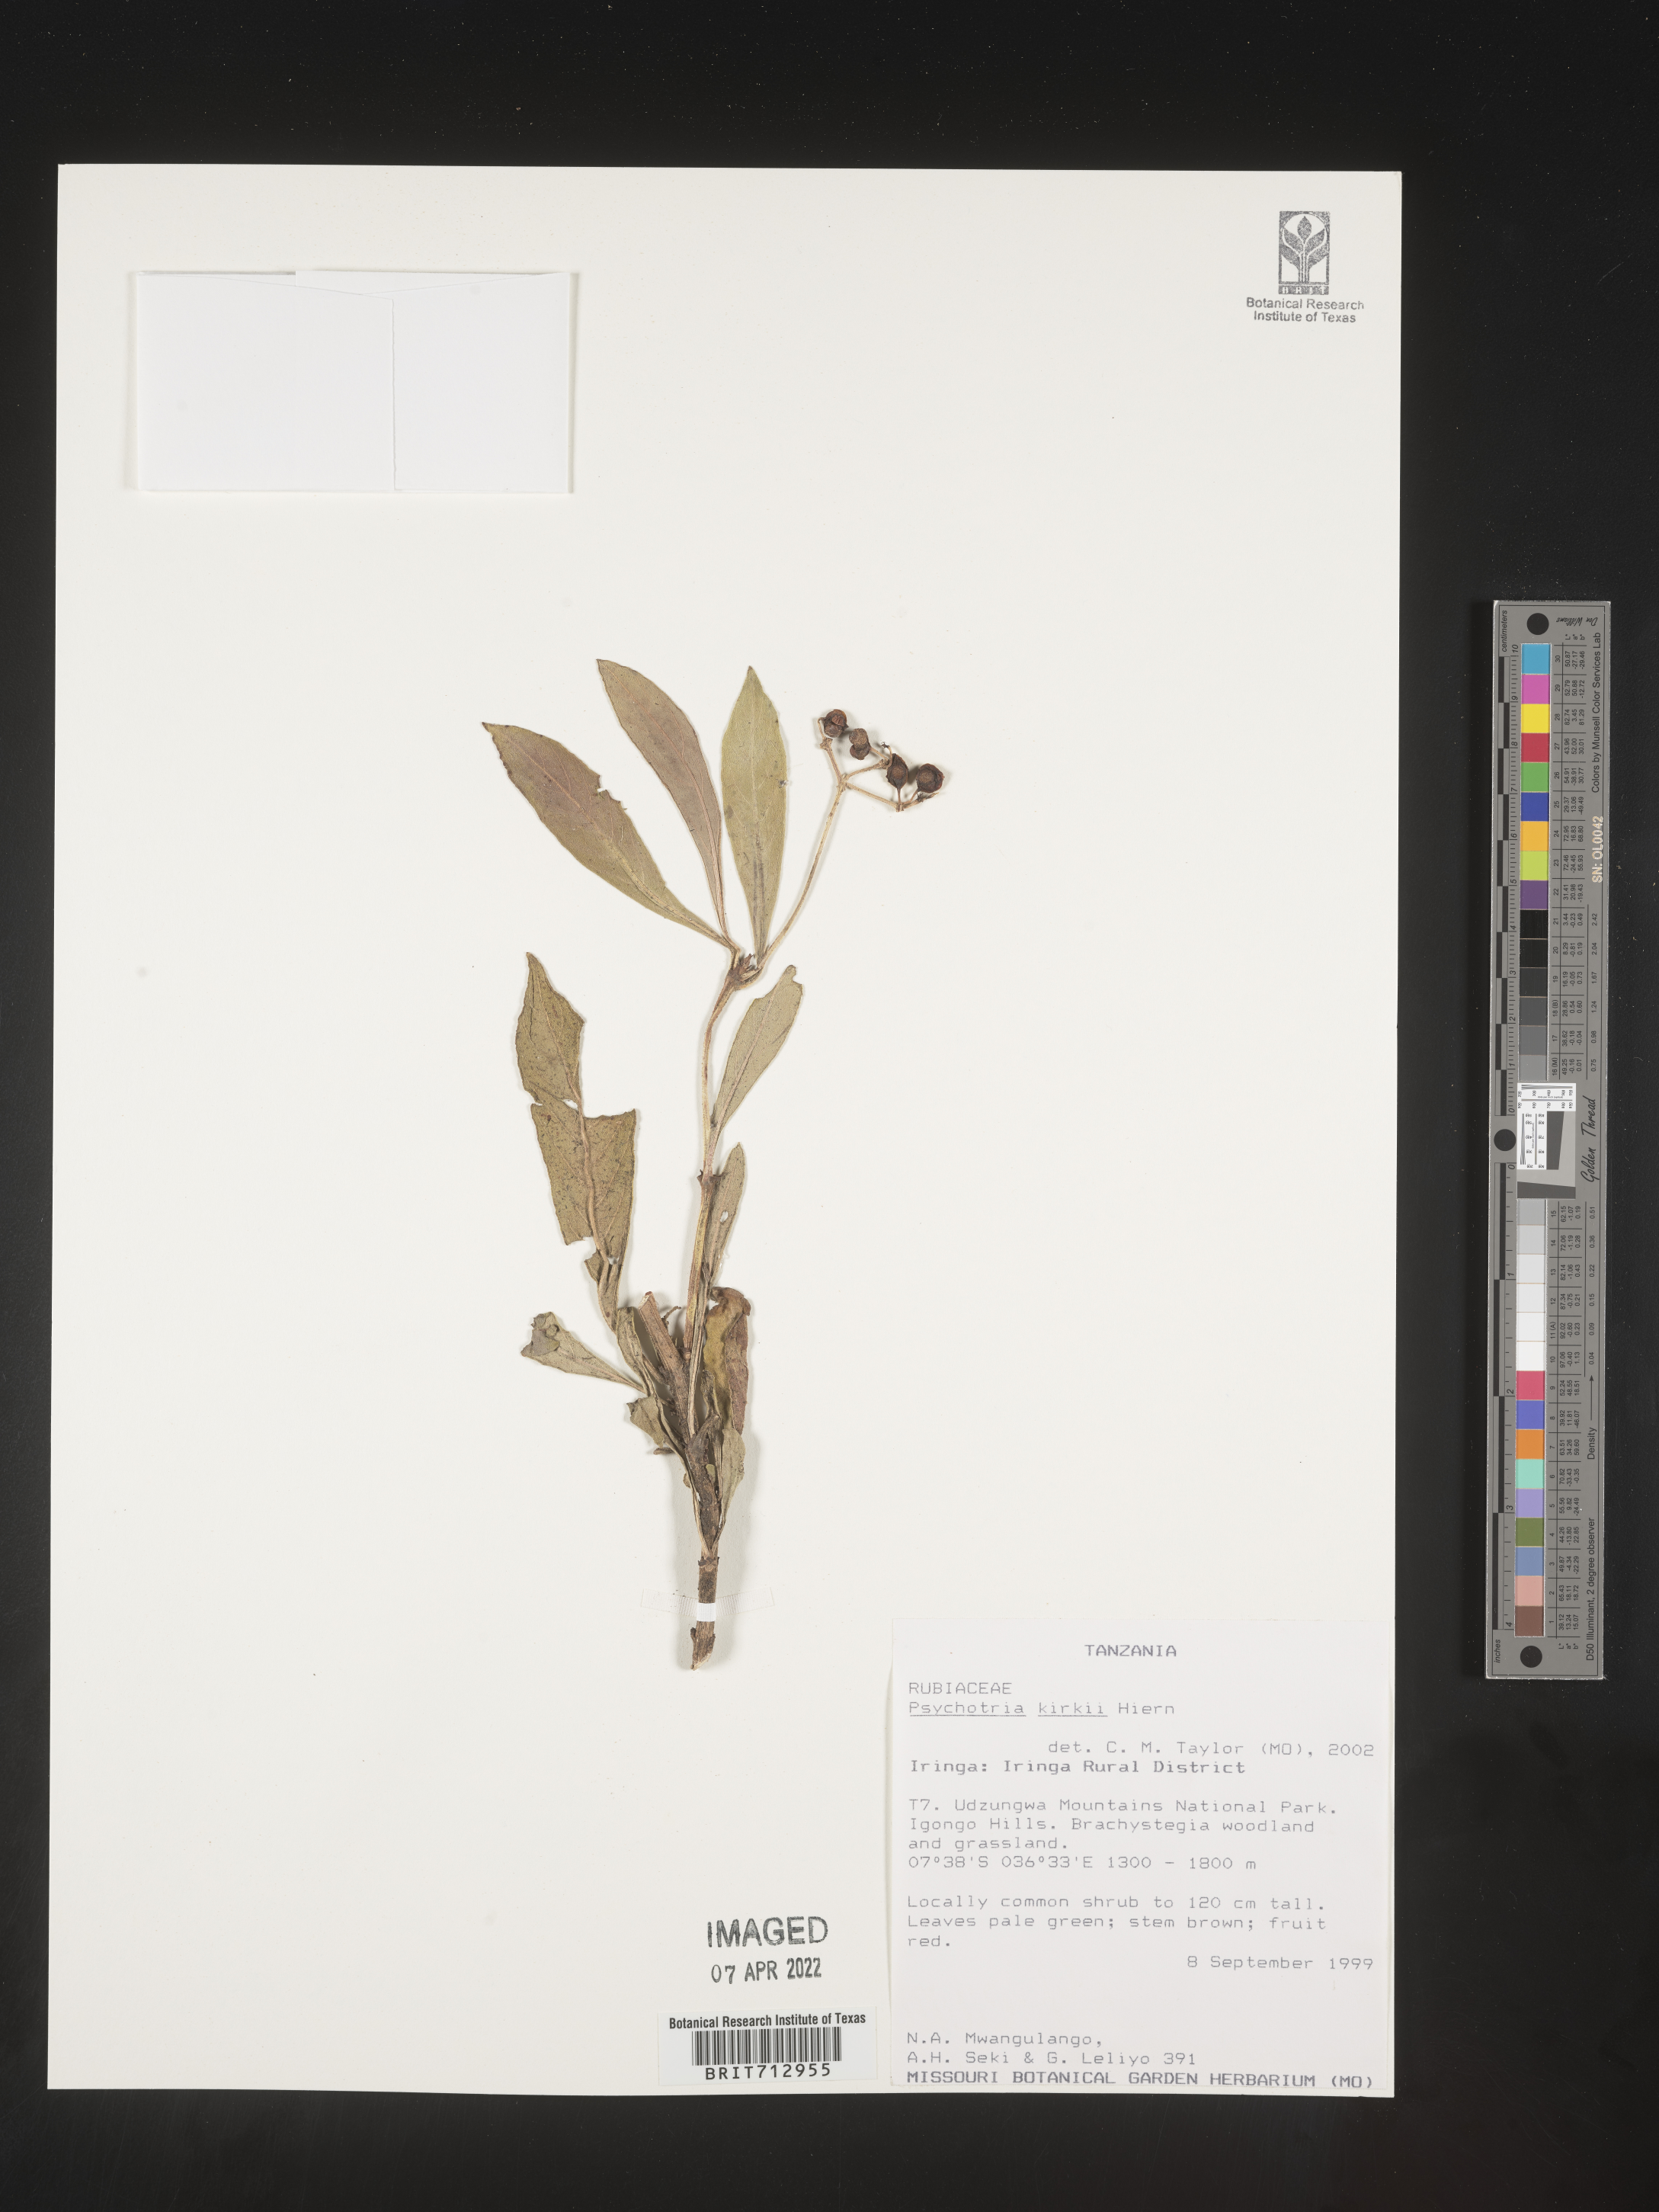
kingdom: Plantae
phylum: Tracheophyta
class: Magnoliopsida
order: Gentianales
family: Rubiaceae
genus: Psychotria
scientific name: Psychotria punctata
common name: Dotted wild coffee
